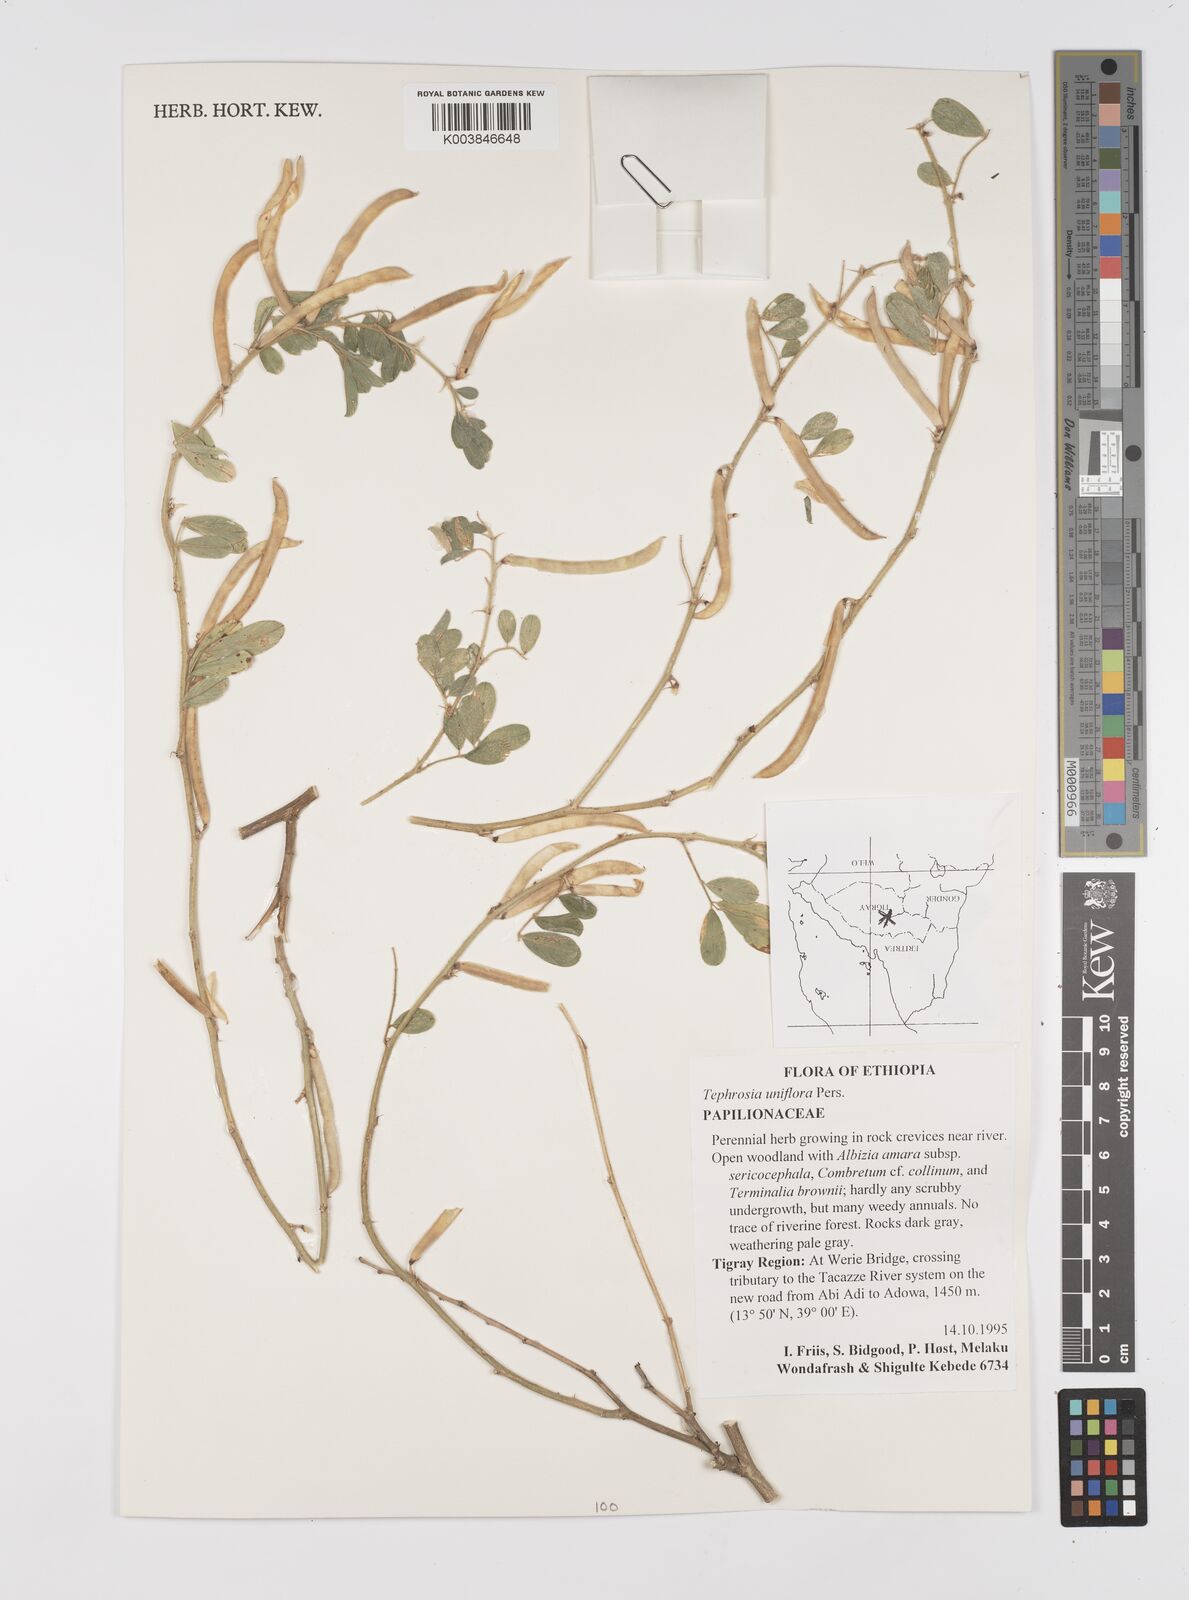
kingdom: Plantae
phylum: Tracheophyta
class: Magnoliopsida
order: Fabales
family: Fabaceae
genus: Tephrosia
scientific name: Tephrosia uniflora
